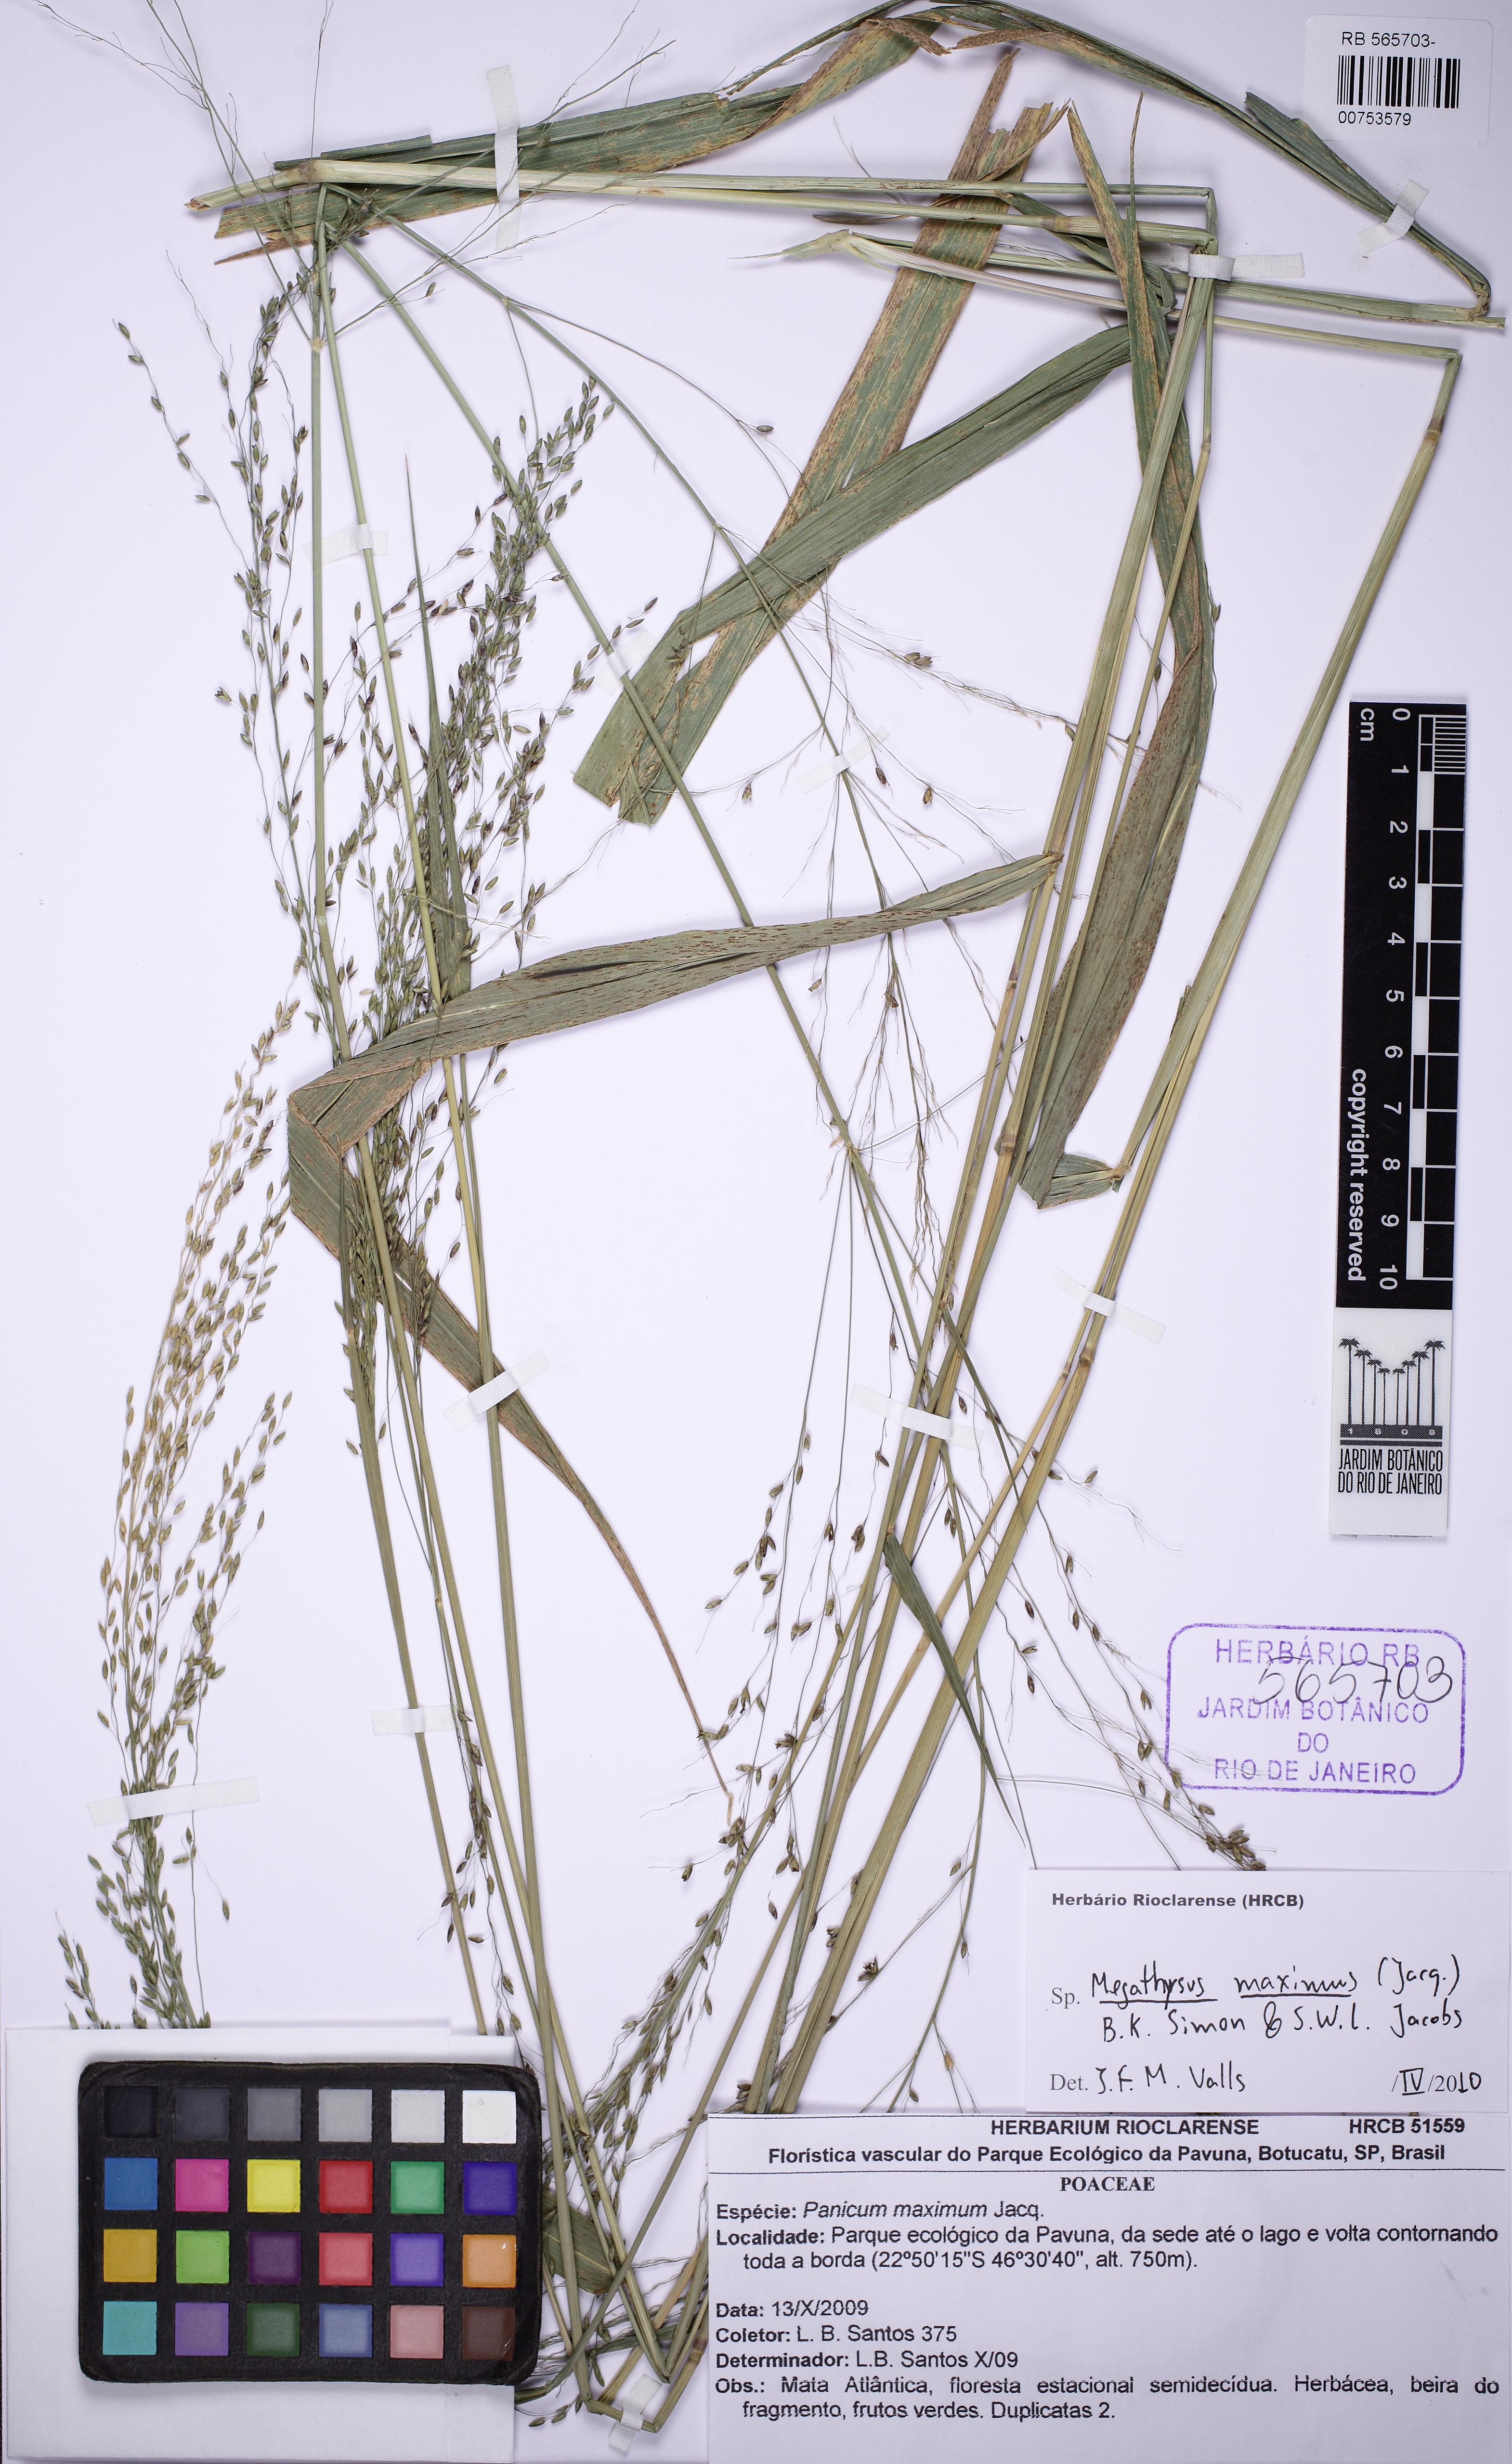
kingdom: Plantae
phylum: Tracheophyta
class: Liliopsida
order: Poales
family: Poaceae
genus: Megathyrsus
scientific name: Megathyrsus maximus
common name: Guineagrass
